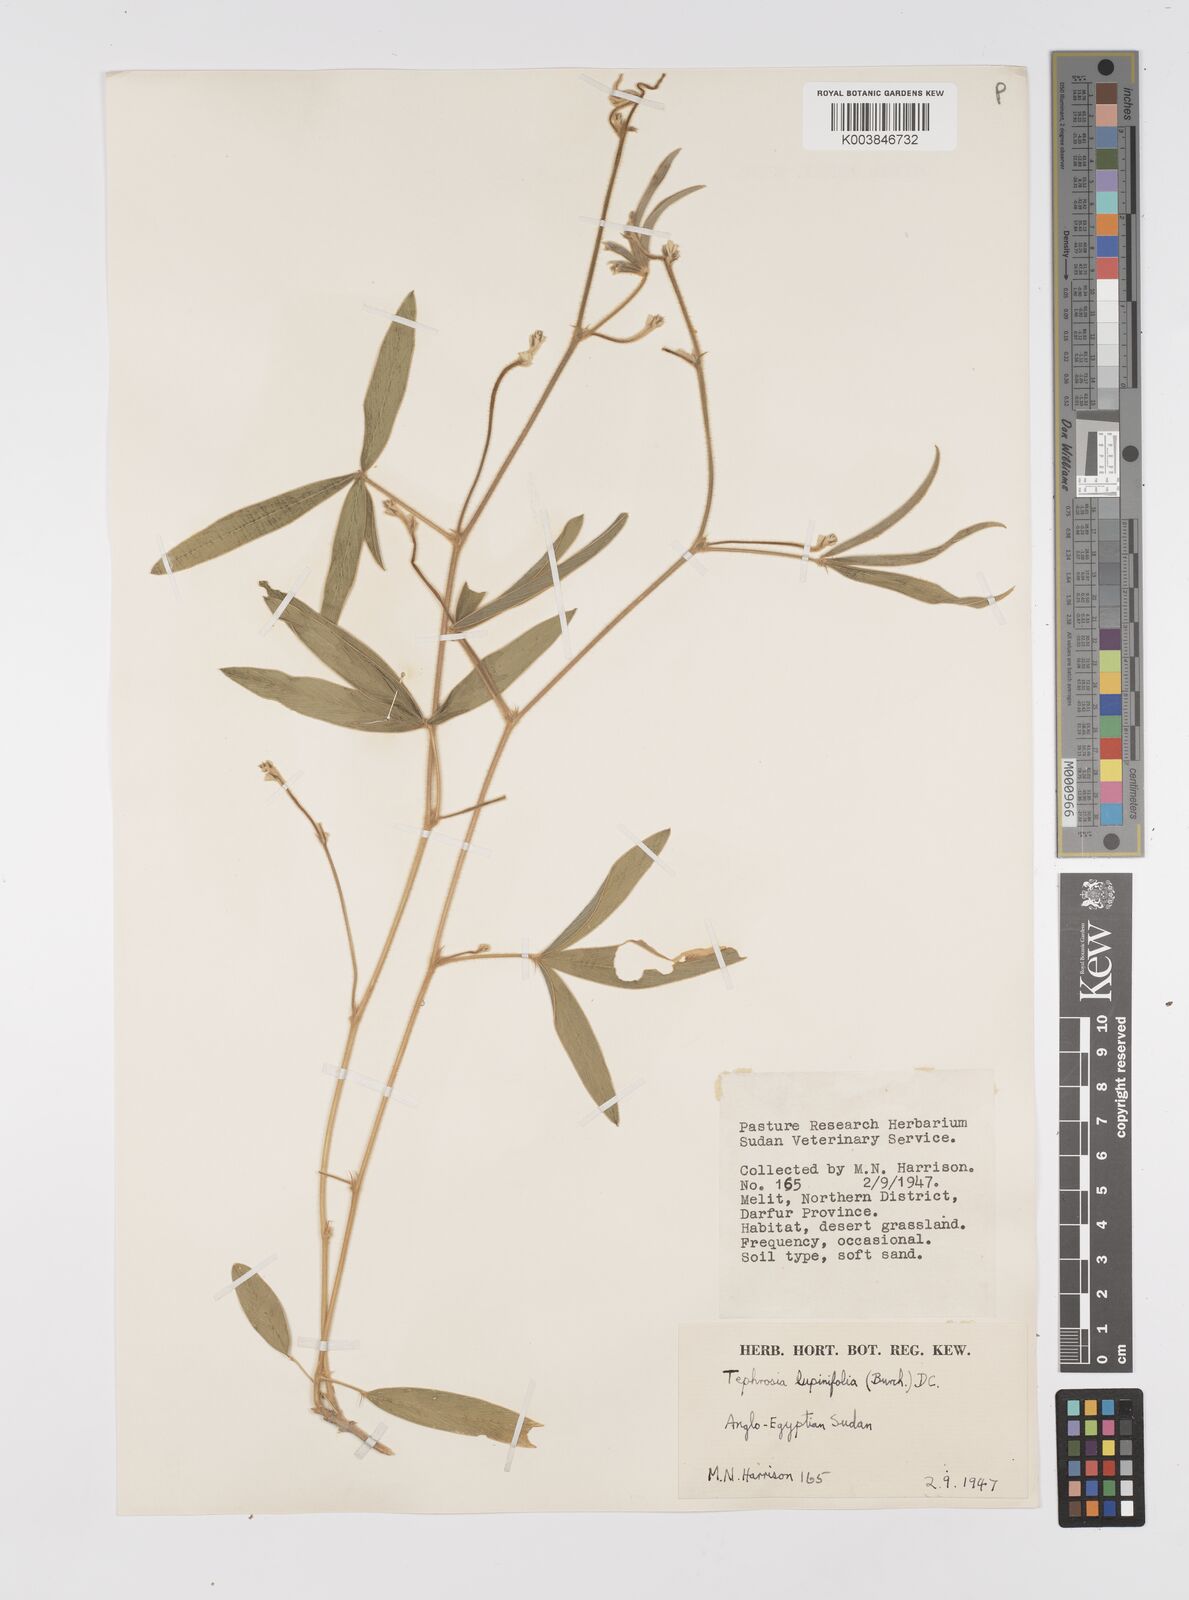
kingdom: Plantae
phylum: Tracheophyta
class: Magnoliopsida
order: Fabales
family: Fabaceae
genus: Tephrosia
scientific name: Tephrosia lupinifolia
